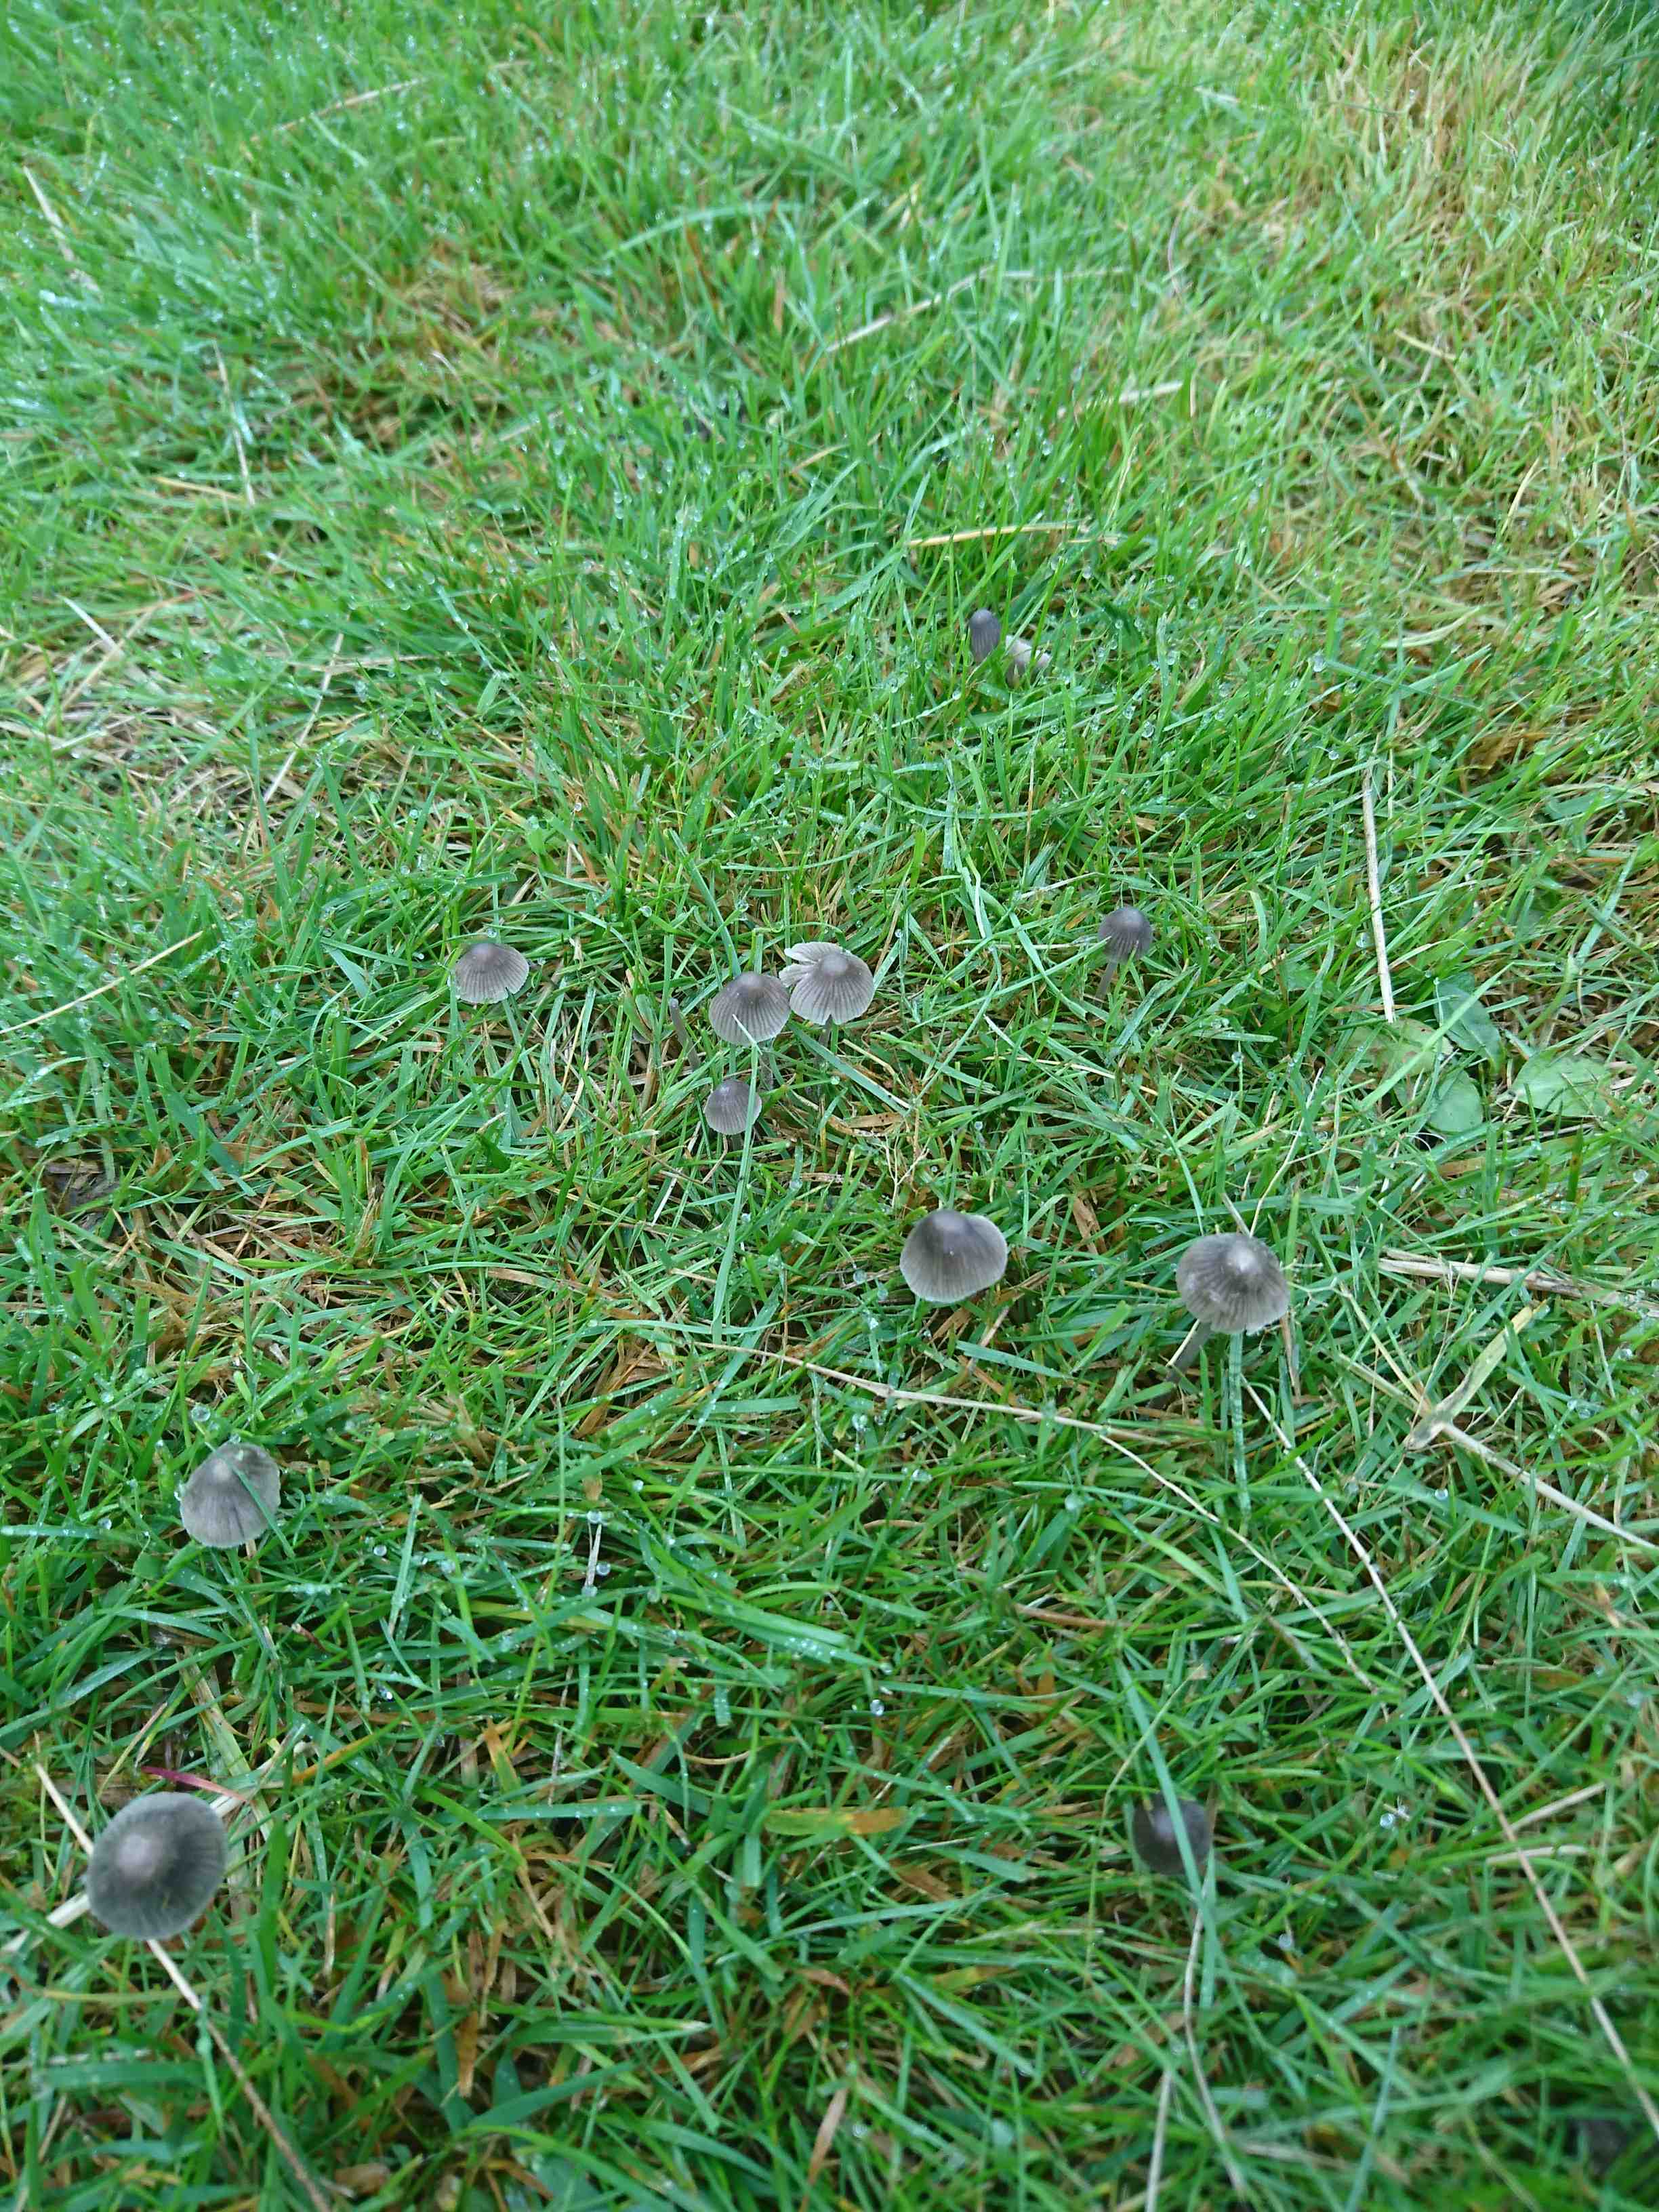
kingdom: Fungi
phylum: Basidiomycota
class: Agaricomycetes
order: Agaricales
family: Mycenaceae
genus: Mycena
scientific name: Mycena aetites
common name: plæne-huesvamp
